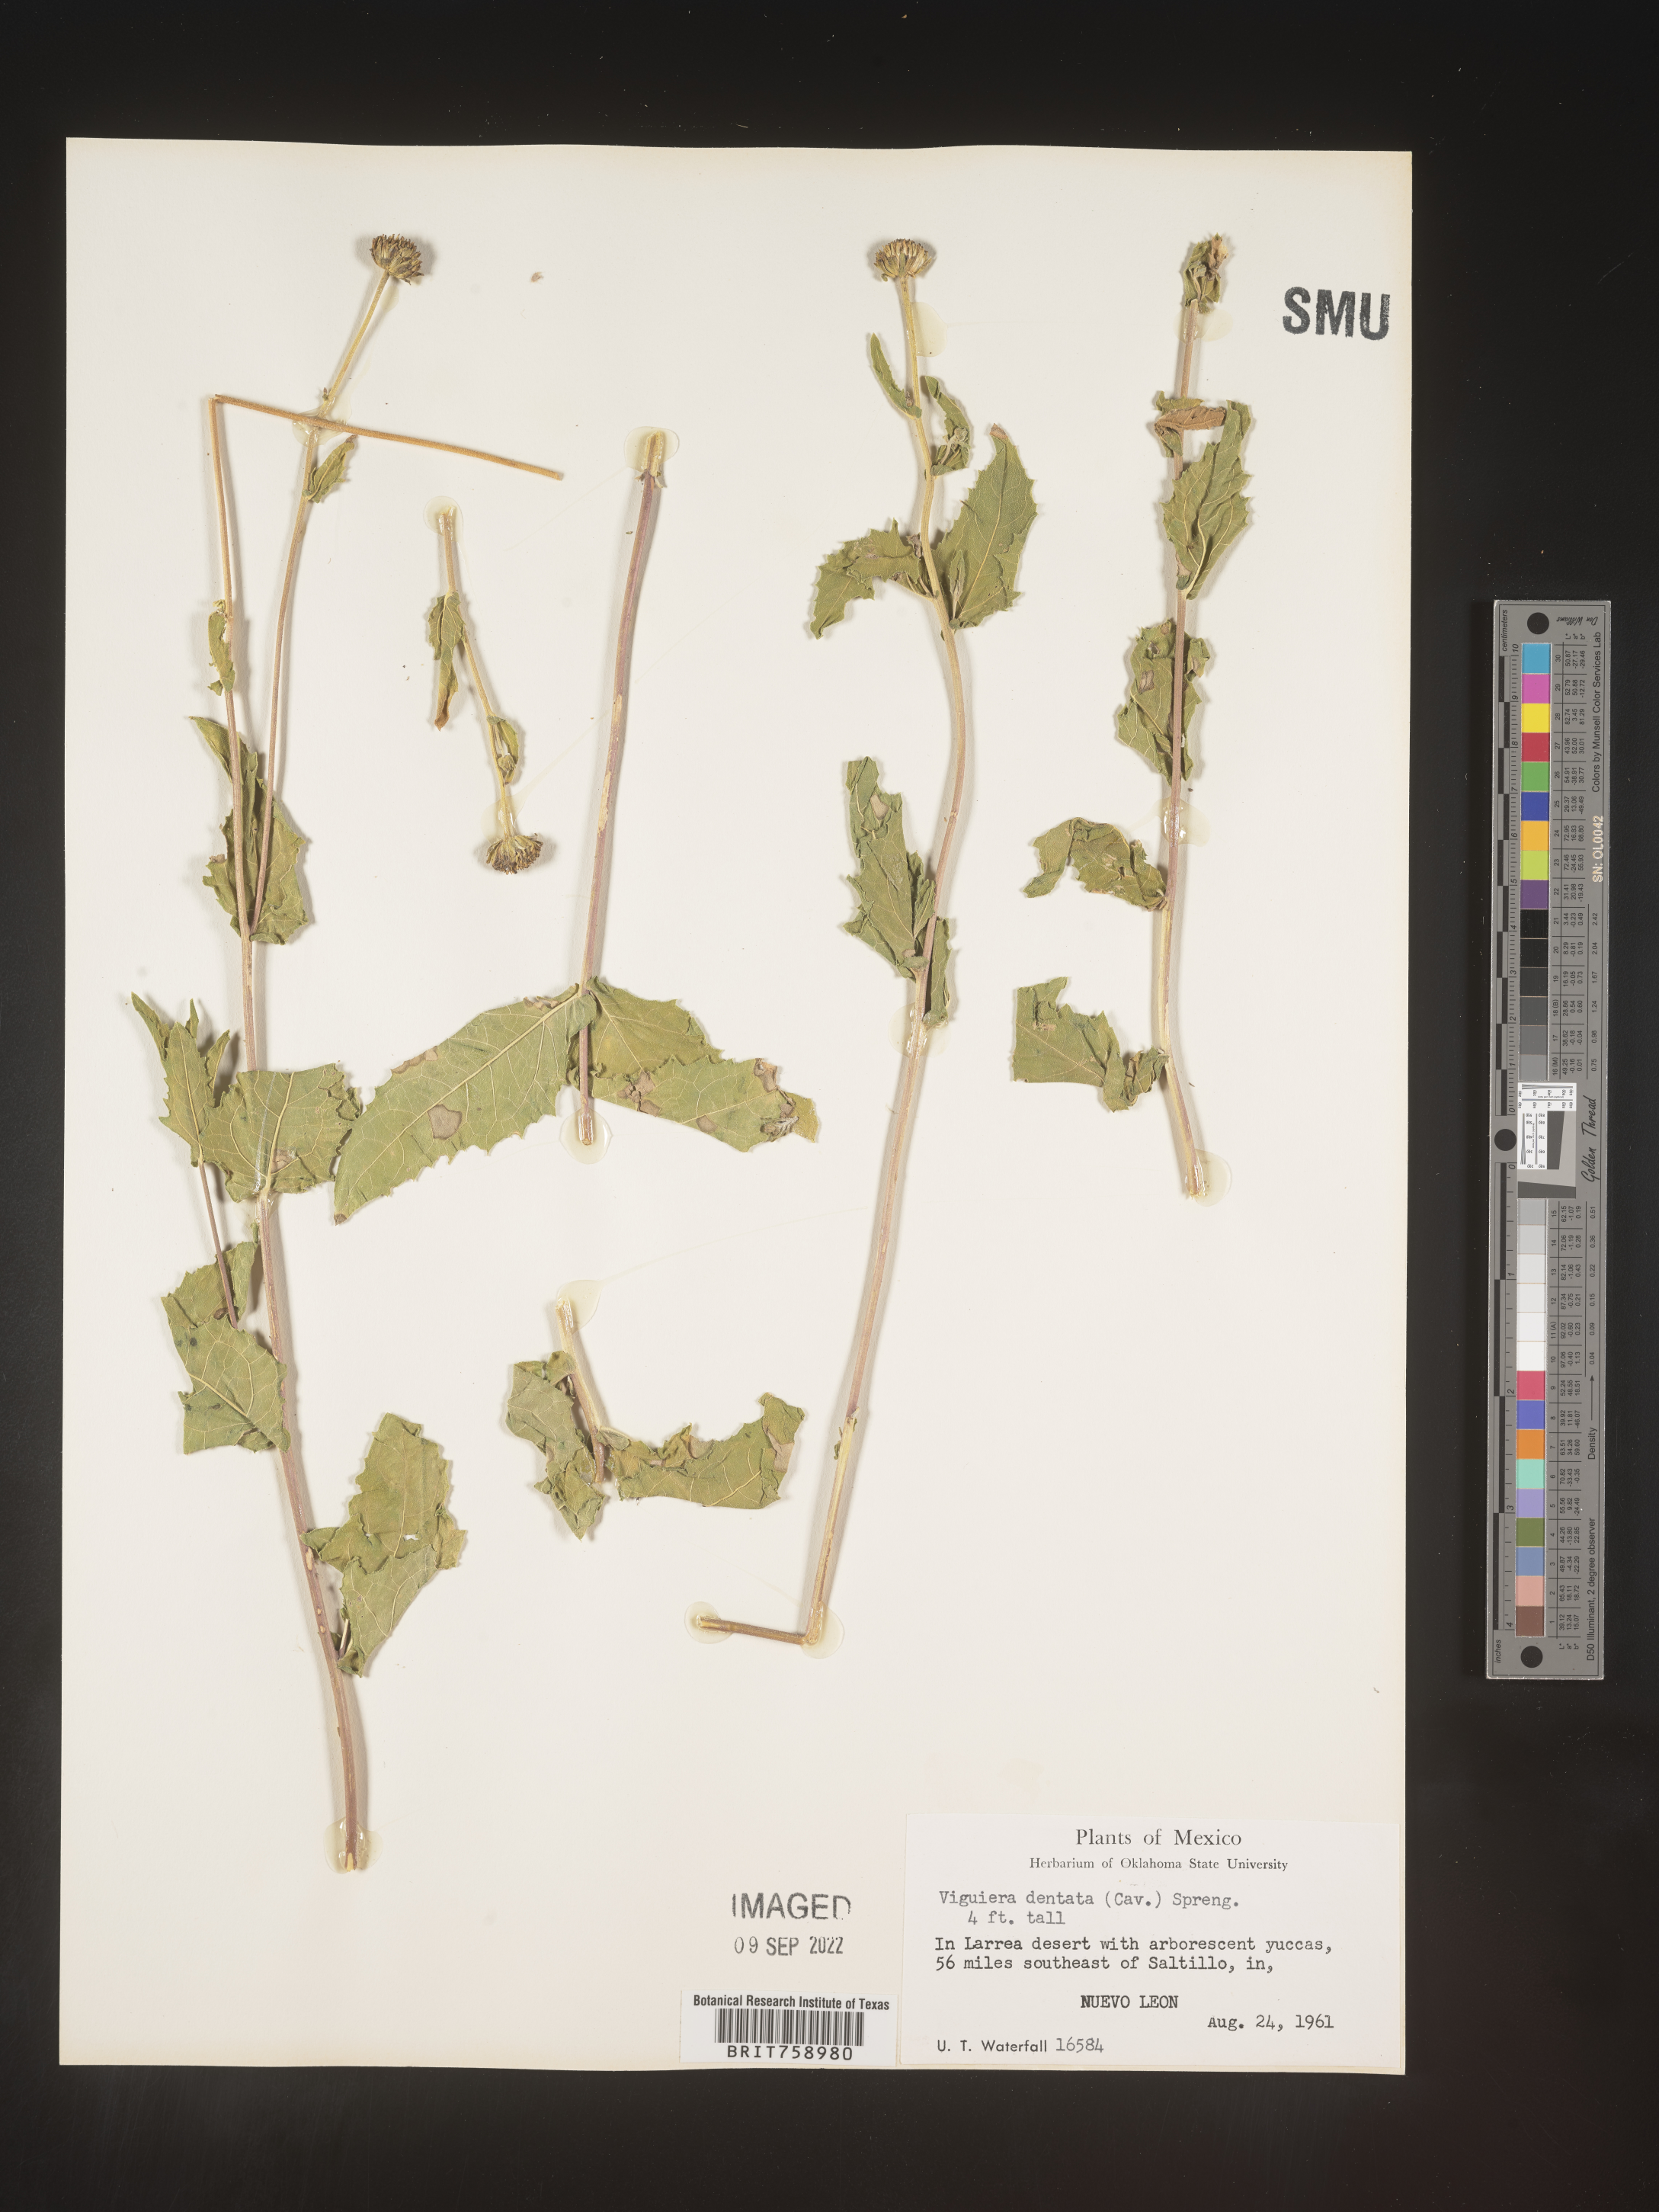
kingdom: Plantae
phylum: Tracheophyta
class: Magnoliopsida
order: Asterales
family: Asteraceae
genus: Viguiera
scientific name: Viguiera
